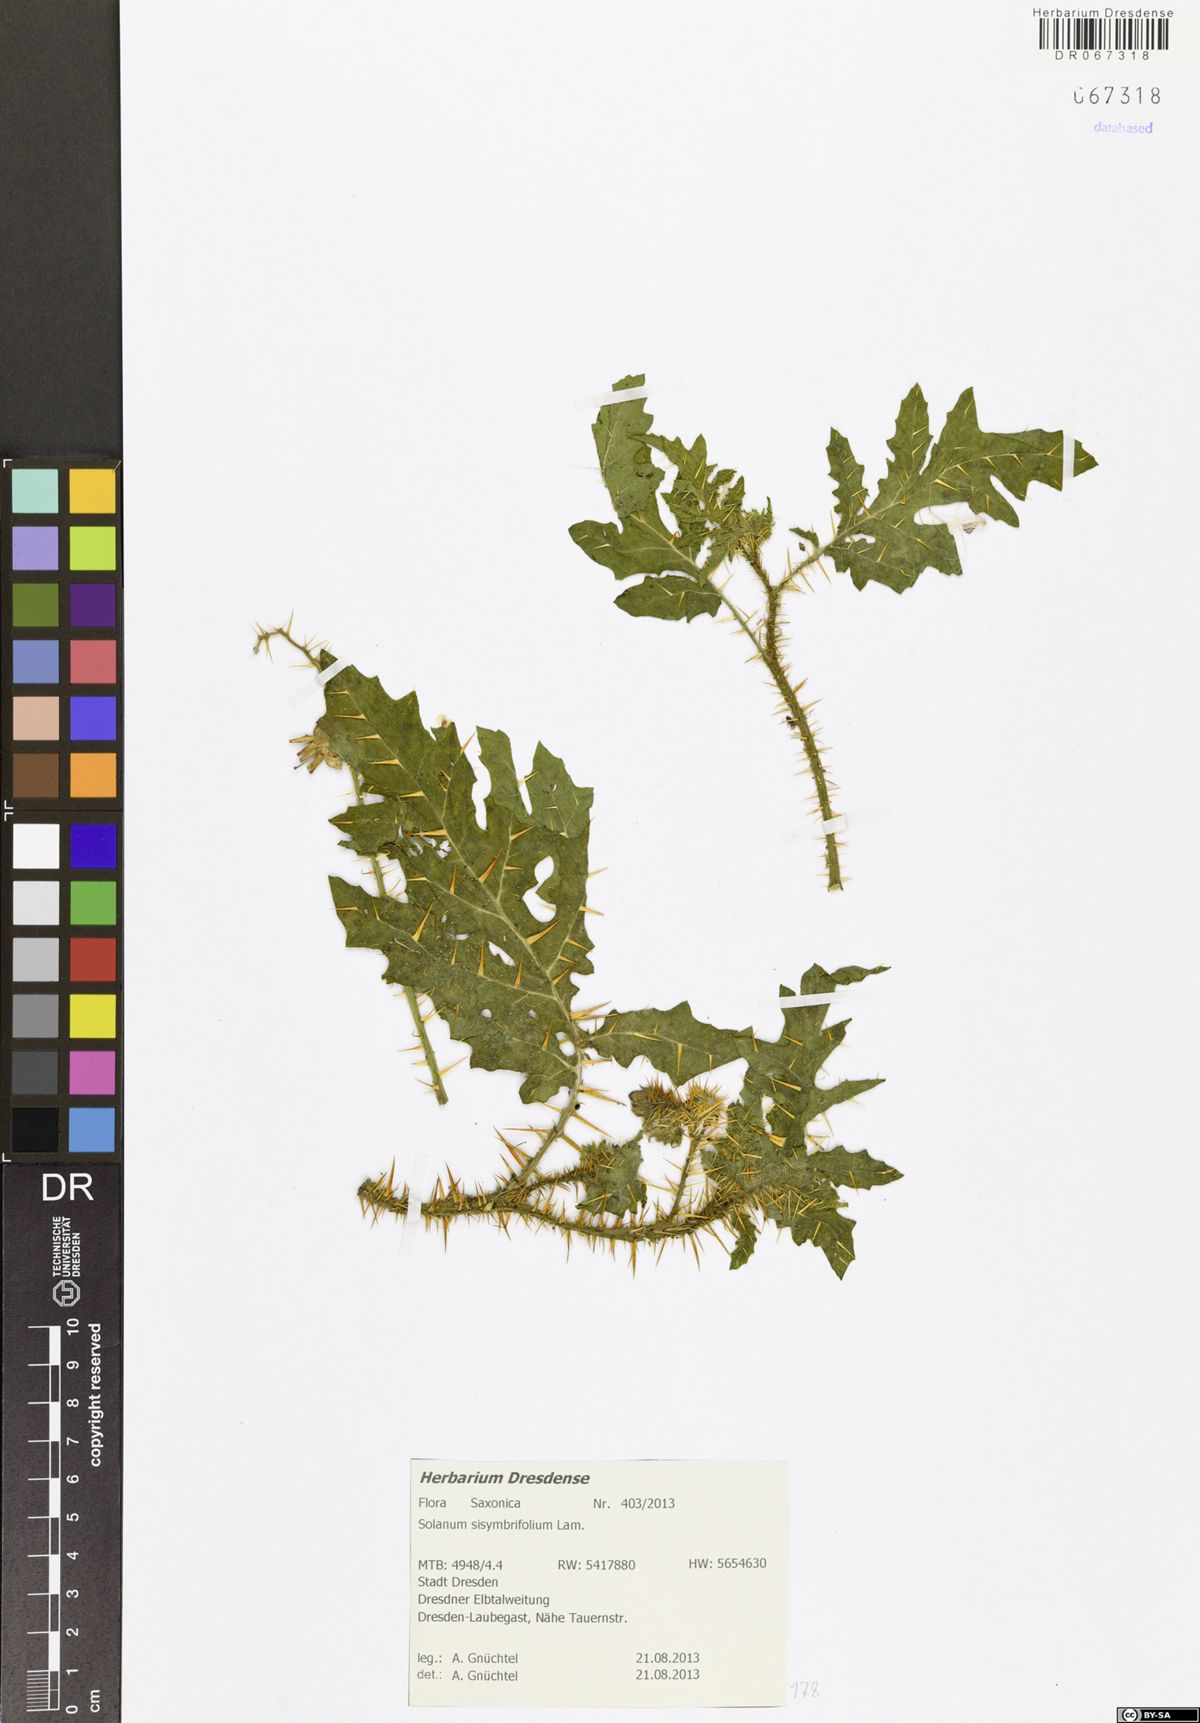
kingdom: Plantae
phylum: Tracheophyta
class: Magnoliopsida
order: Solanales
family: Solanaceae
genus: Solanum
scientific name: Solanum sisymbriifolium
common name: Red buffalo-bur
